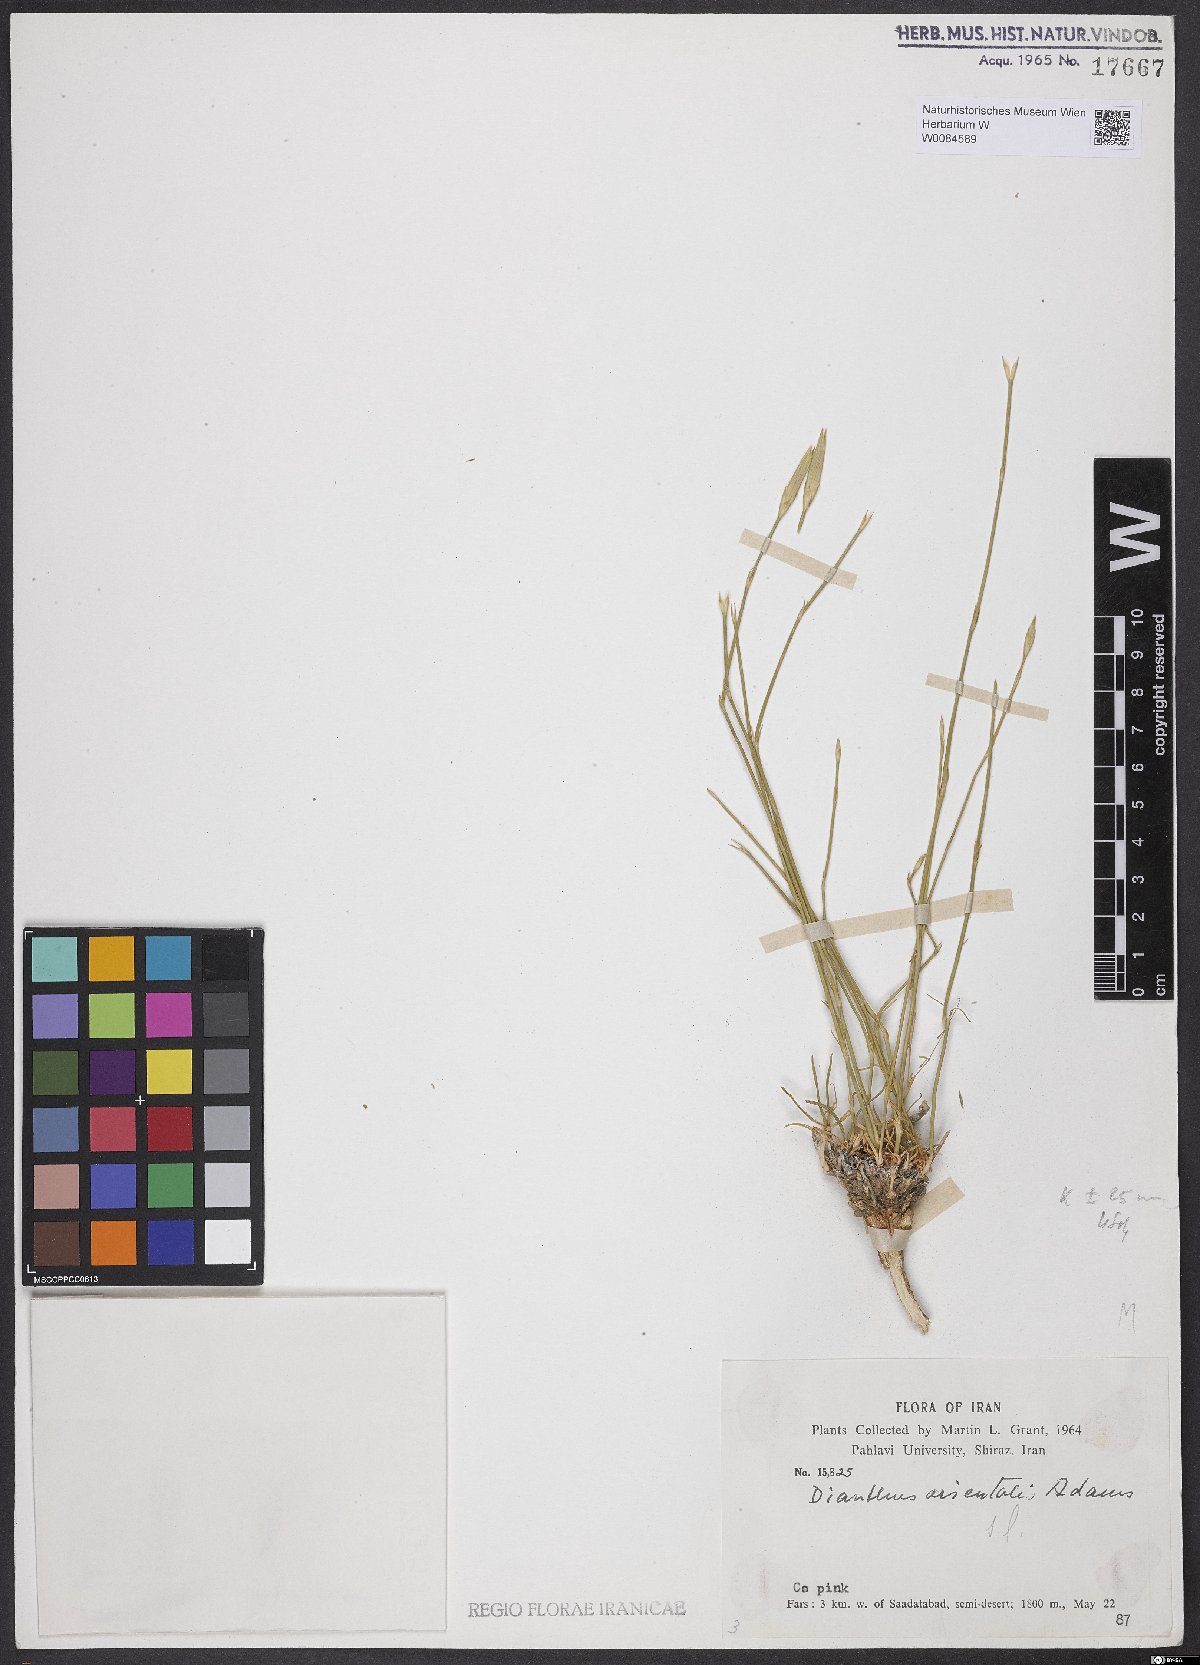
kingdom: Plantae
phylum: Tracheophyta
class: Magnoliopsida
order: Caryophyllales
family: Caryophyllaceae
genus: Dianthus
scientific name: Dianthus orientalis
